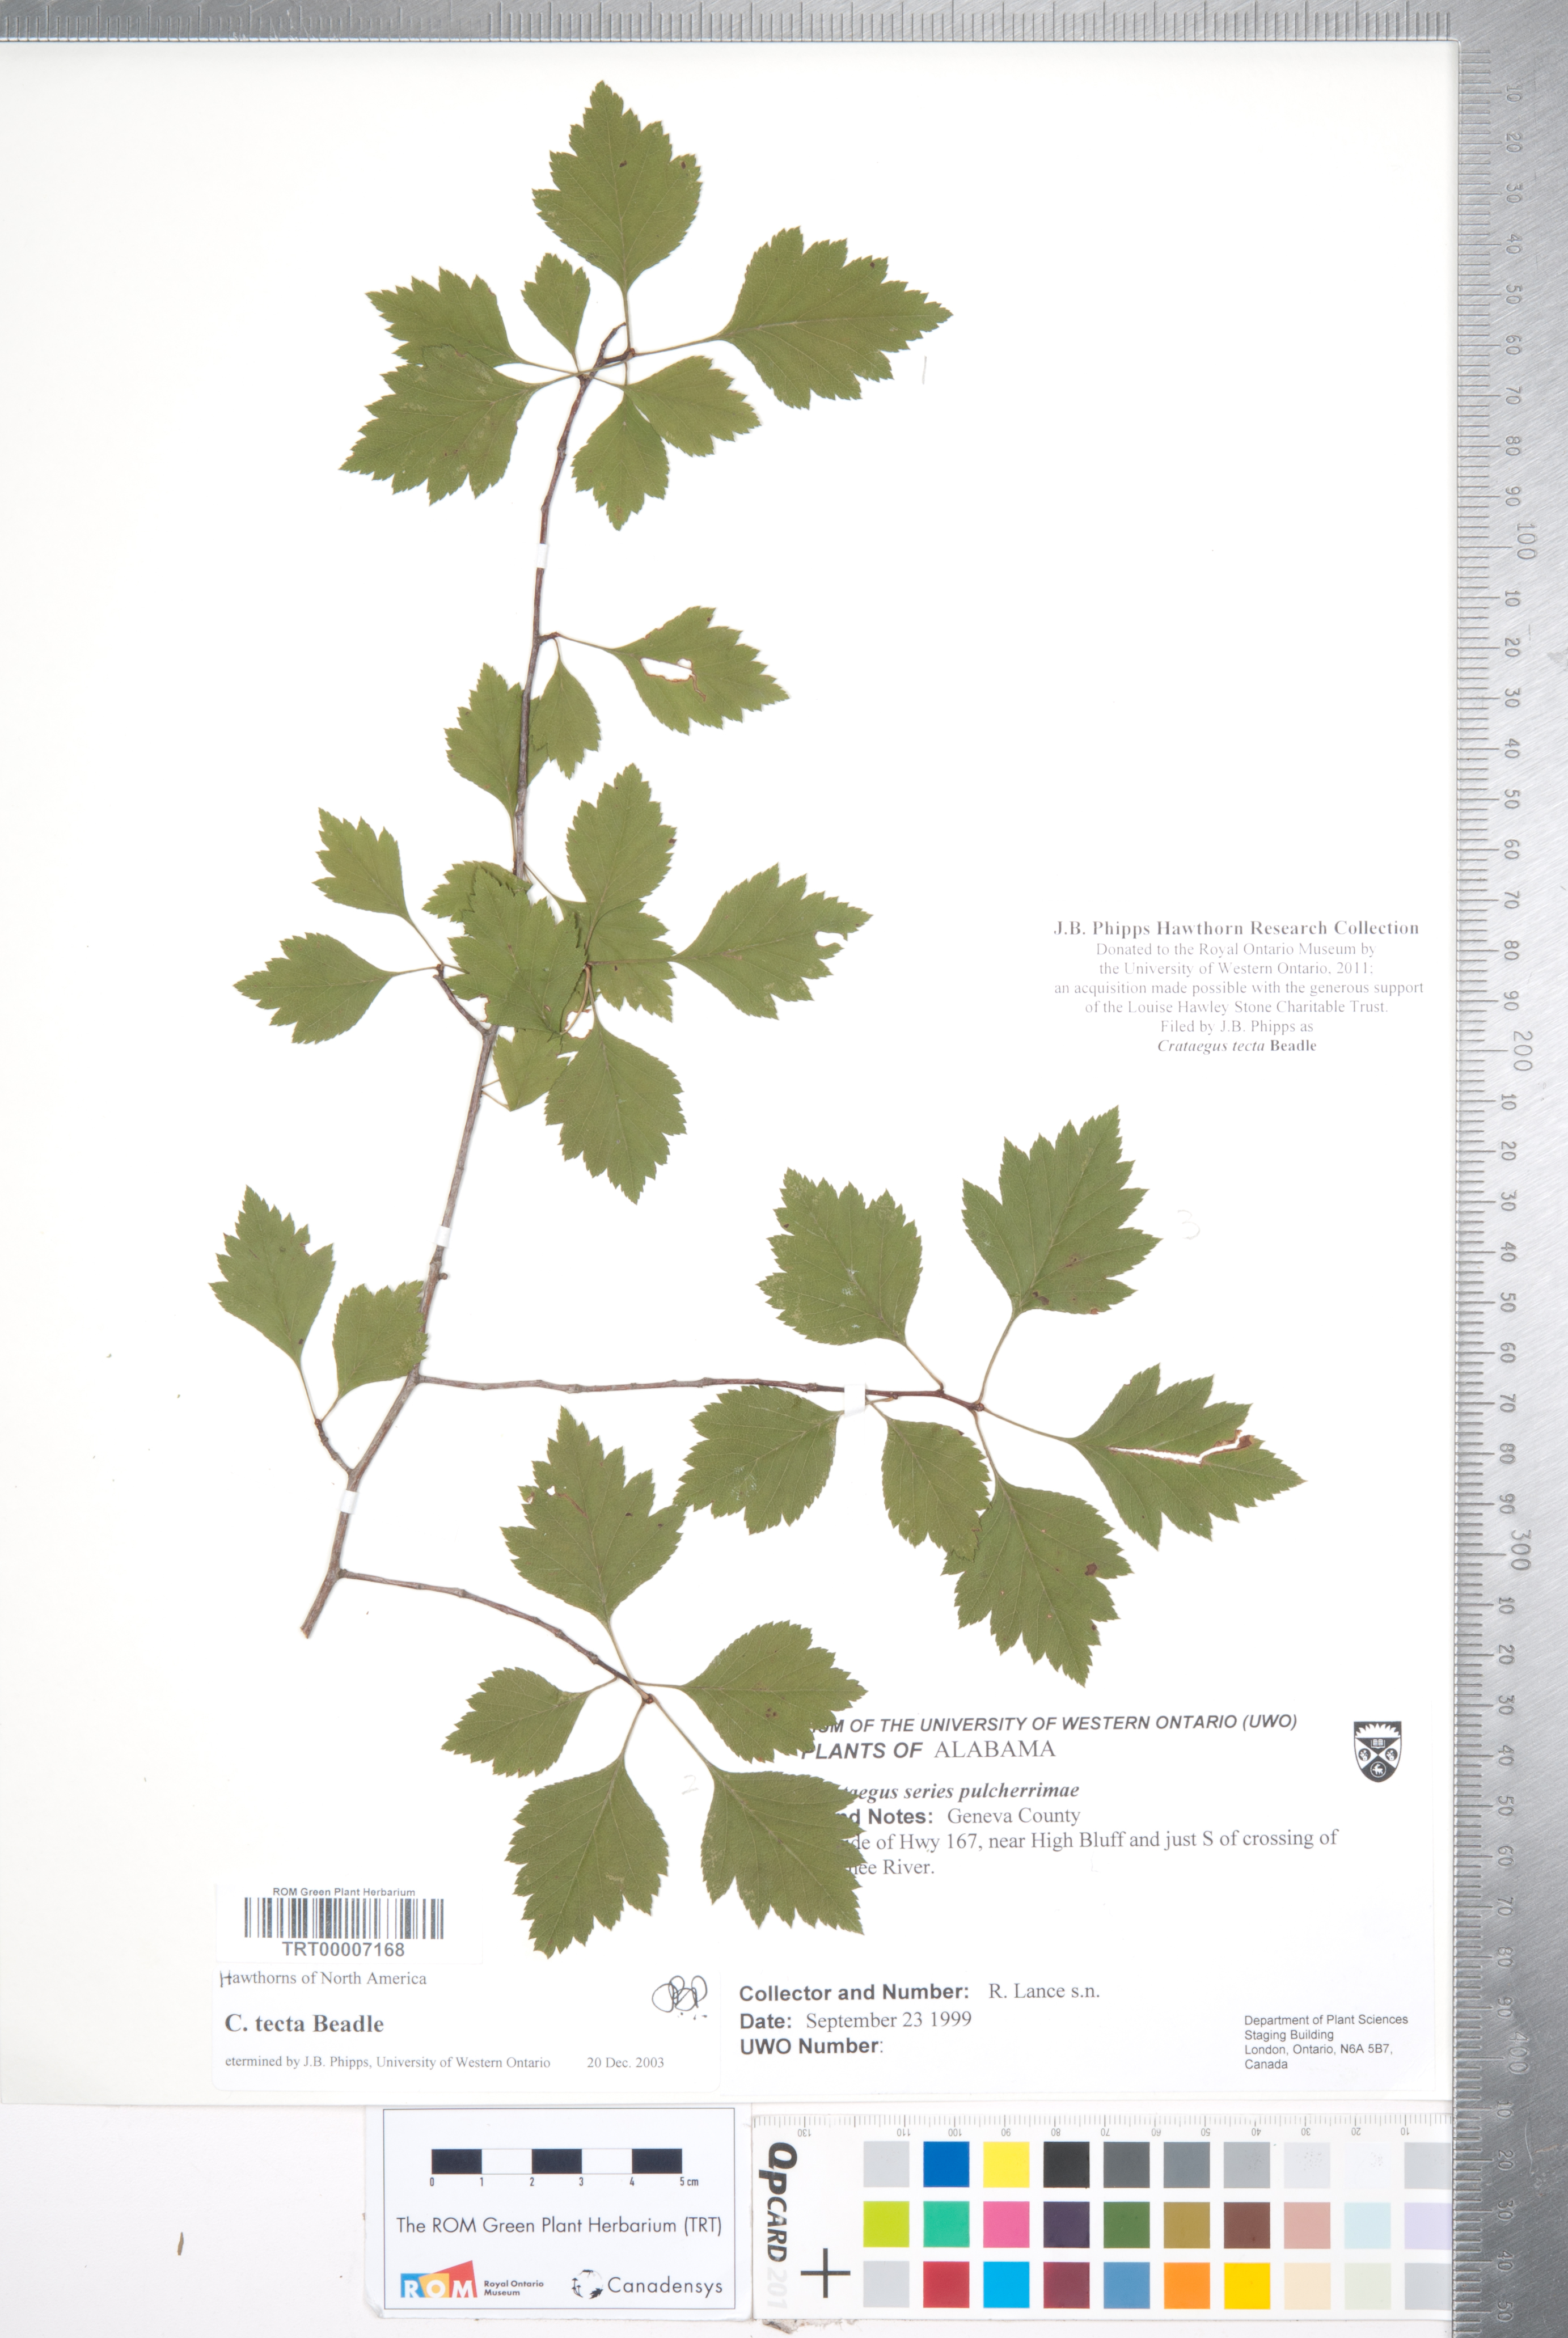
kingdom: Plantae
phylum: Tracheophyta
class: Magnoliopsida
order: Rosales
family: Rosaceae
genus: Crataegus
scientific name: Crataegus pulcherrima
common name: Beautiful hawthorn
